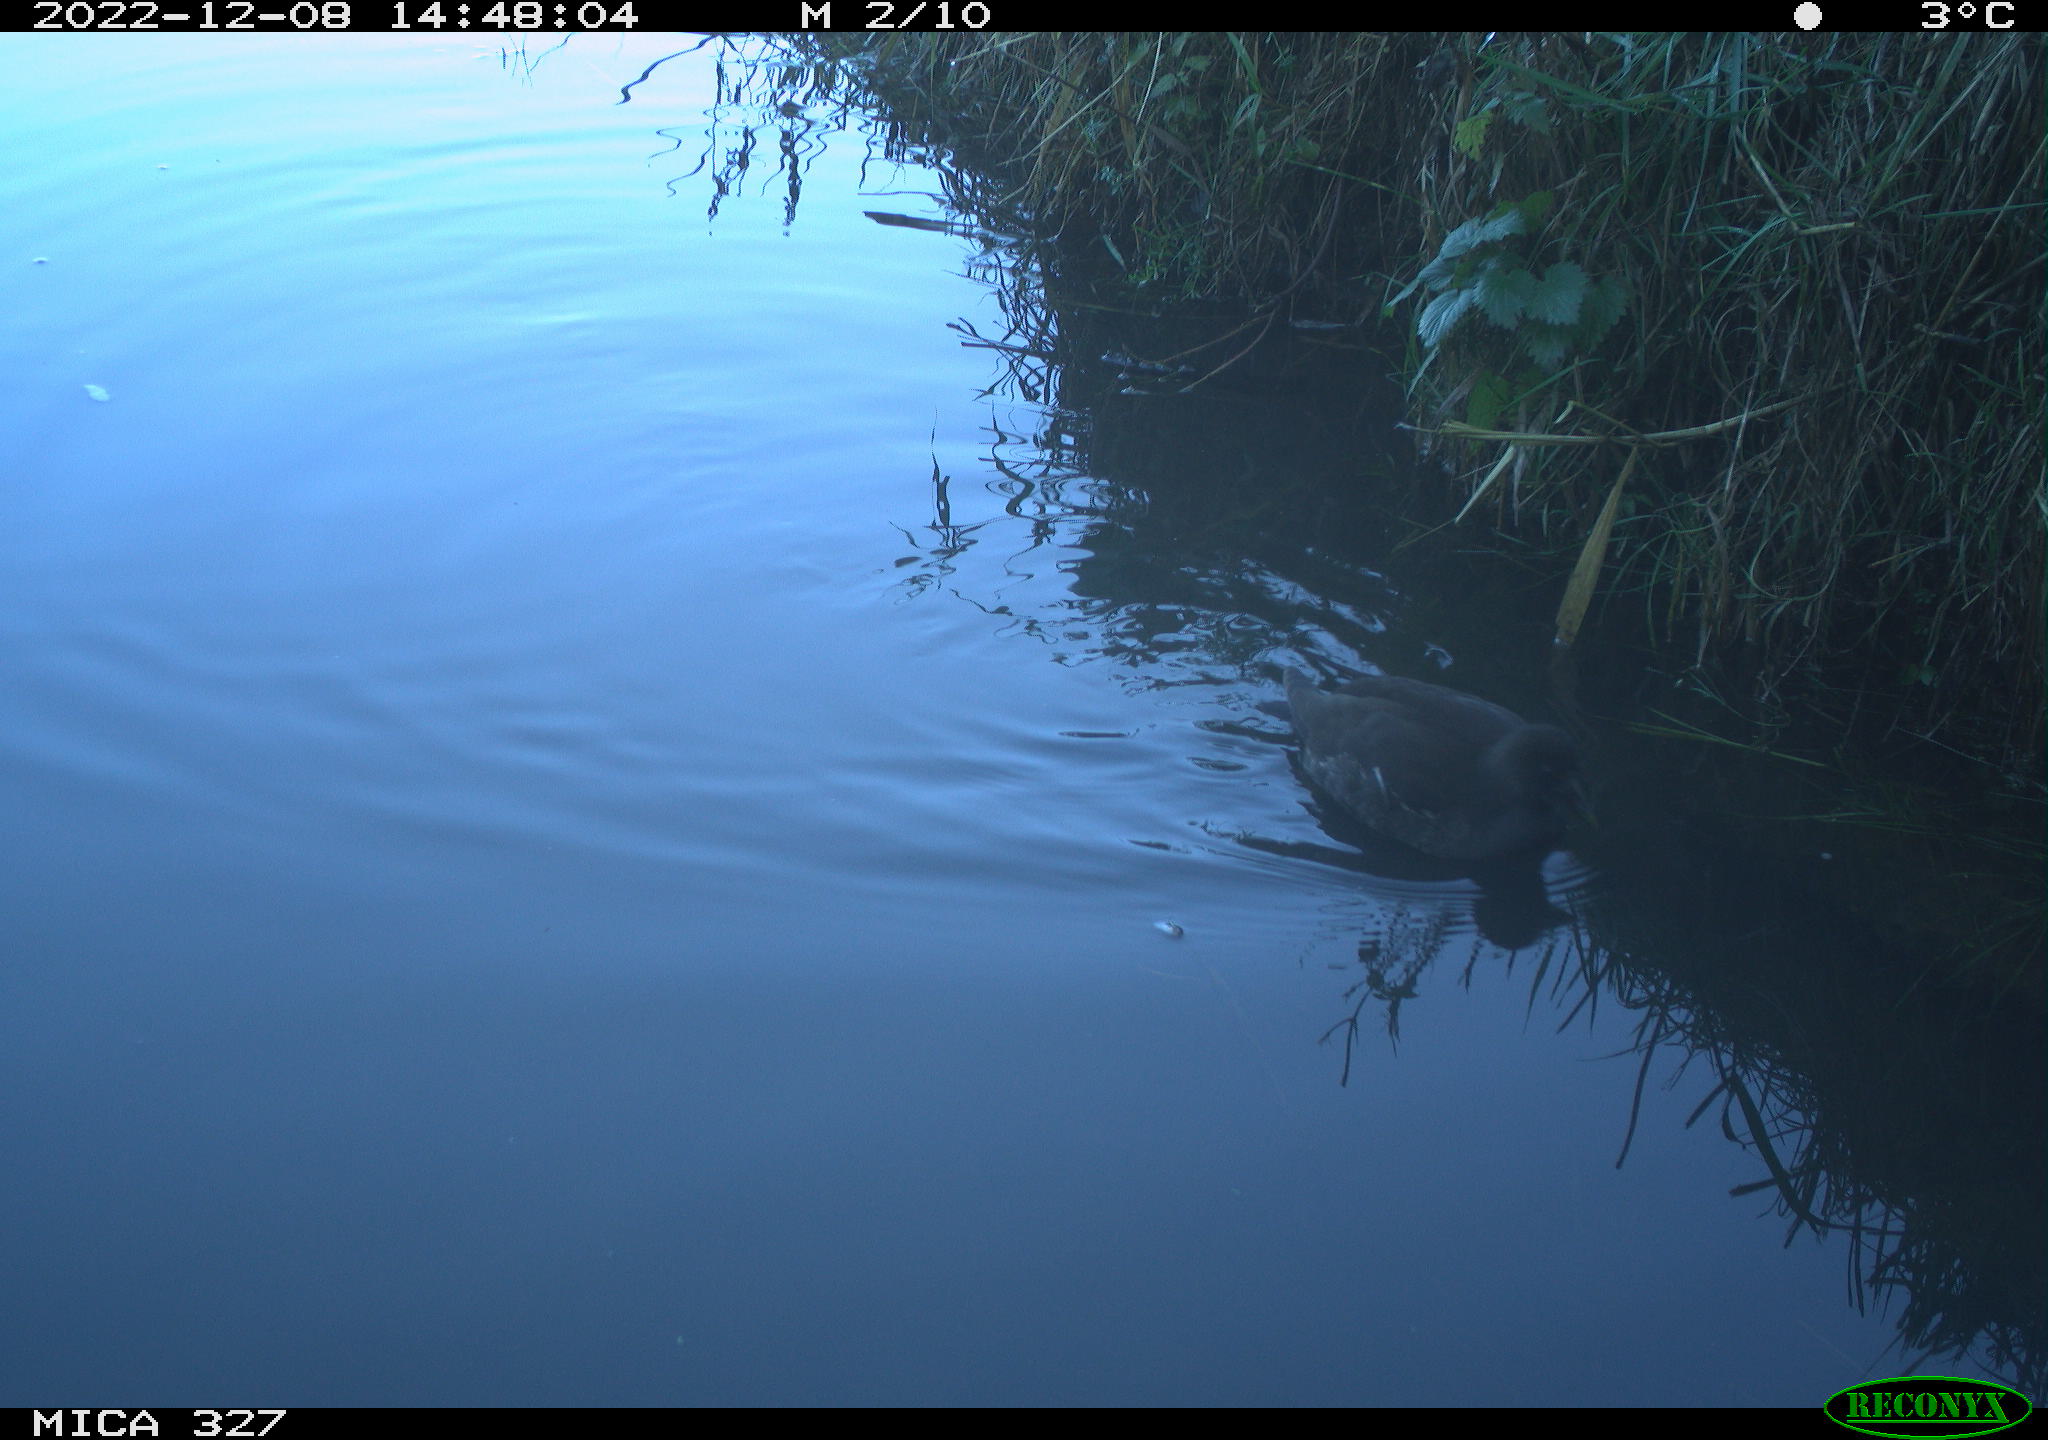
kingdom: Animalia
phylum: Chordata
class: Aves
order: Gruiformes
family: Rallidae
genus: Gallinula
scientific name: Gallinula chloropus
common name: Common moorhen
